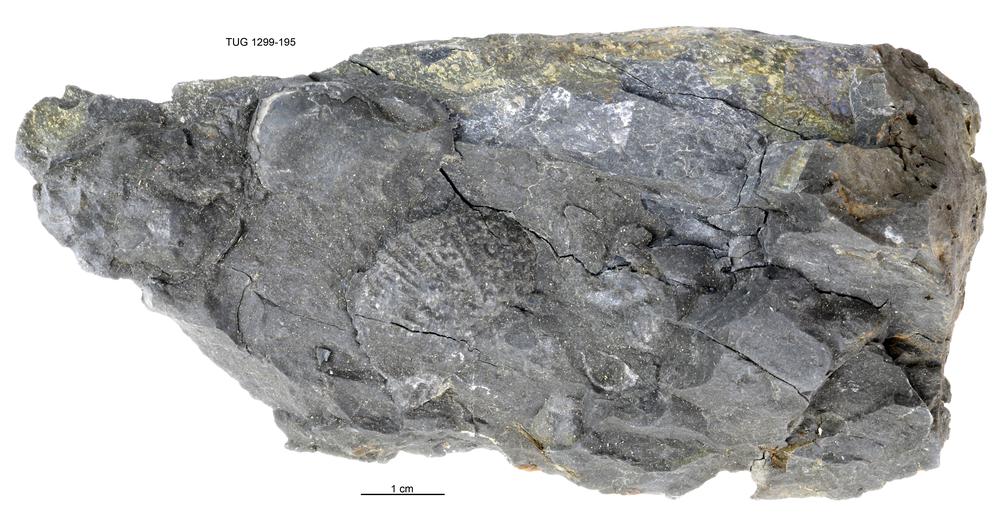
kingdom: Animalia
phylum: Brachiopoda
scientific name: Brachiopoda
